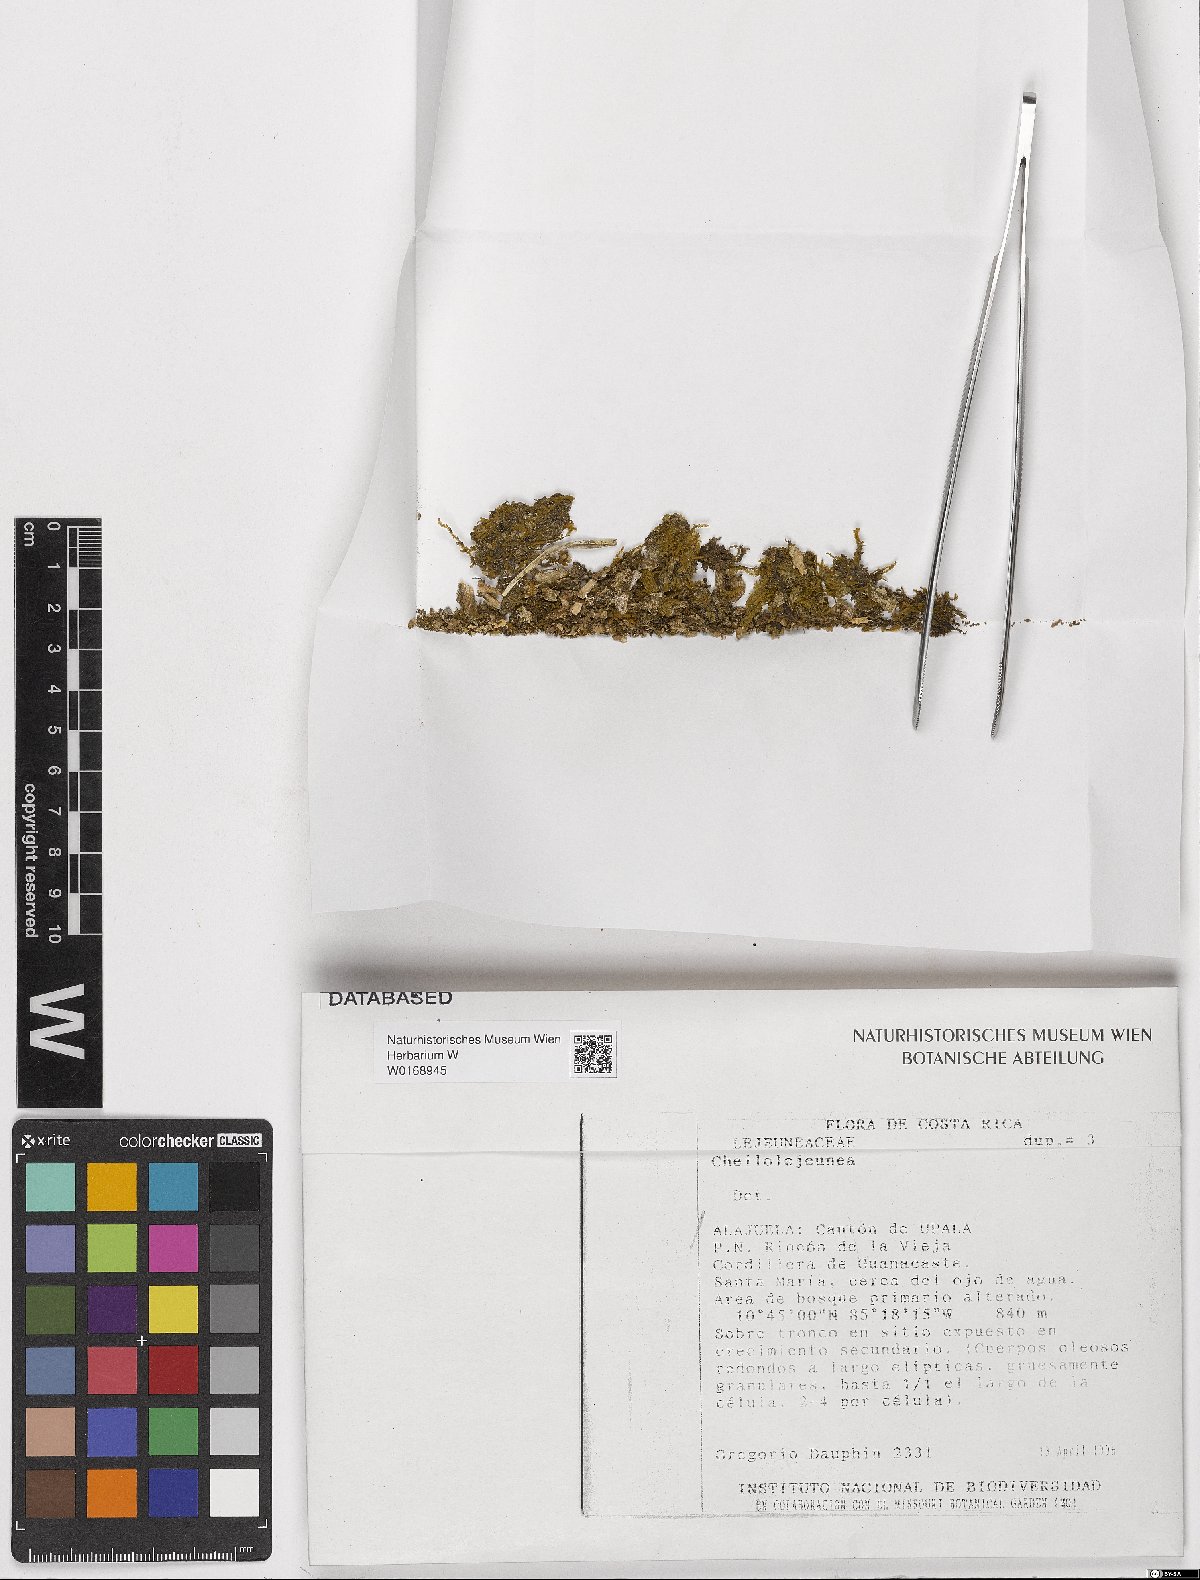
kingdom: Plantae
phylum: Marchantiophyta
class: Jungermanniopsida
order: Porellales
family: Lejeuneaceae
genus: Cheilolejeunea
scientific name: Cheilolejeunea
